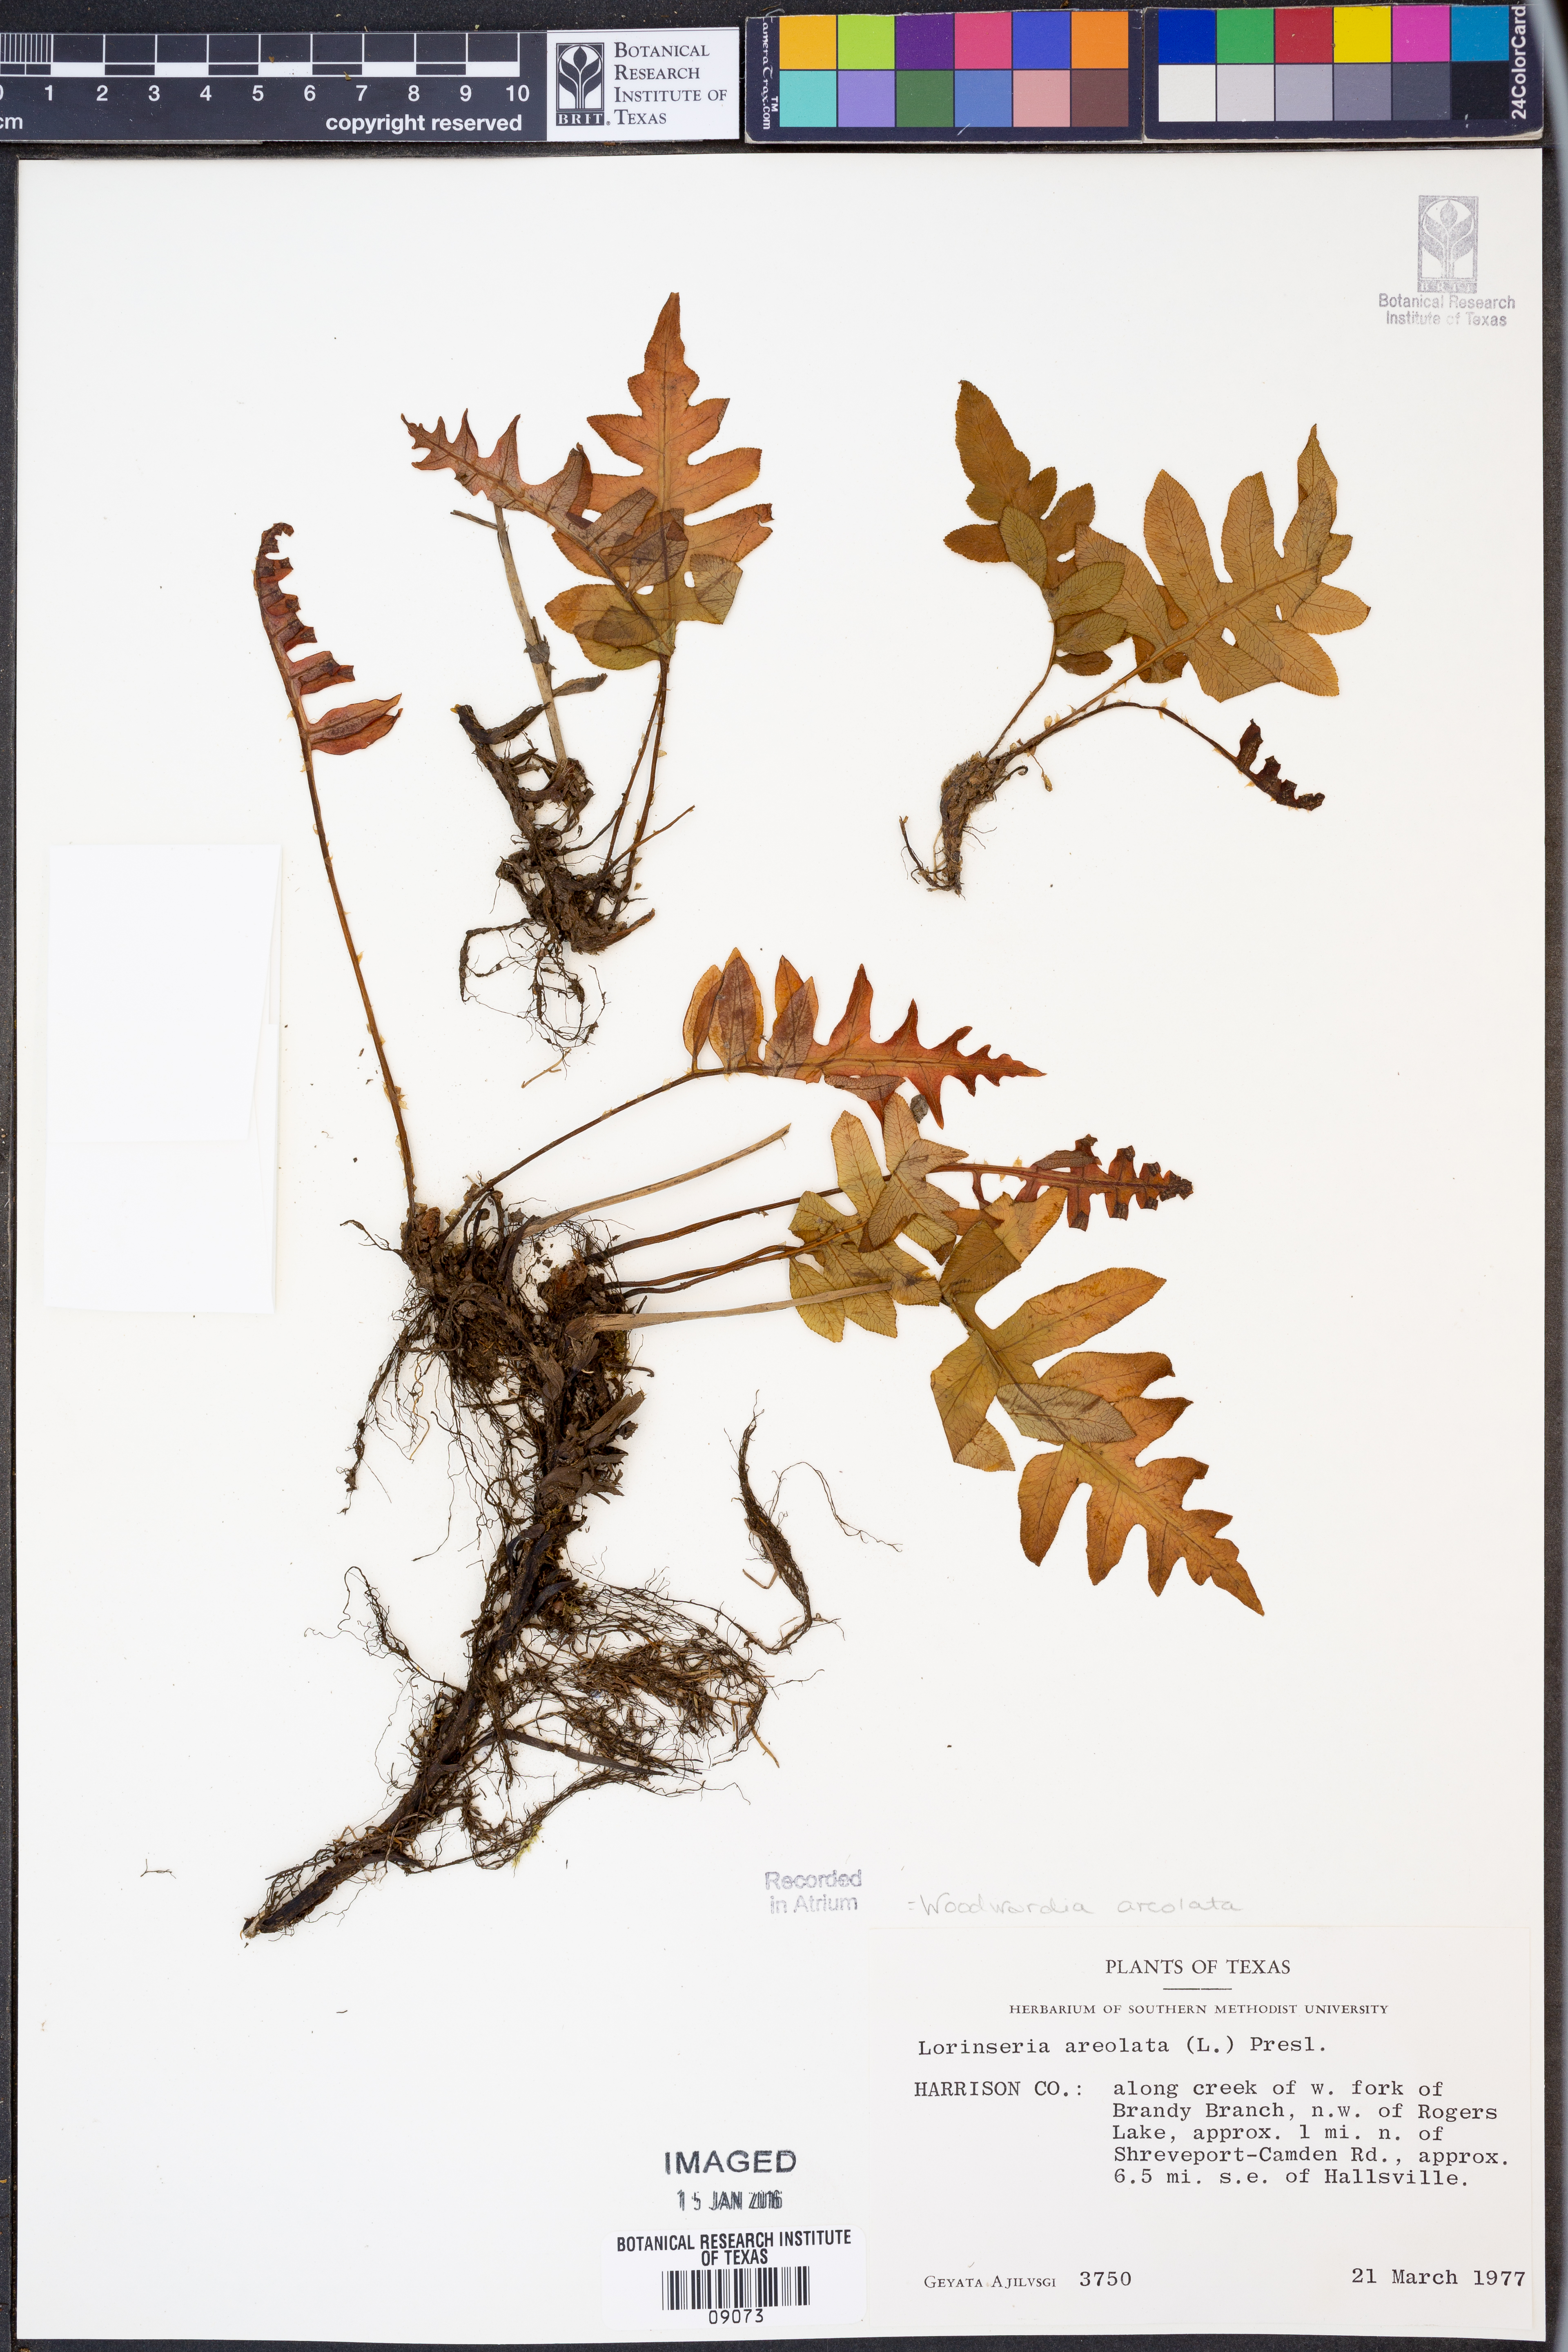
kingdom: Plantae
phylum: Tracheophyta
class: Polypodiopsida
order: Polypodiales
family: Blechnaceae
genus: Lorinseria
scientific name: Lorinseria areolata
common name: Dwarf chain fern
